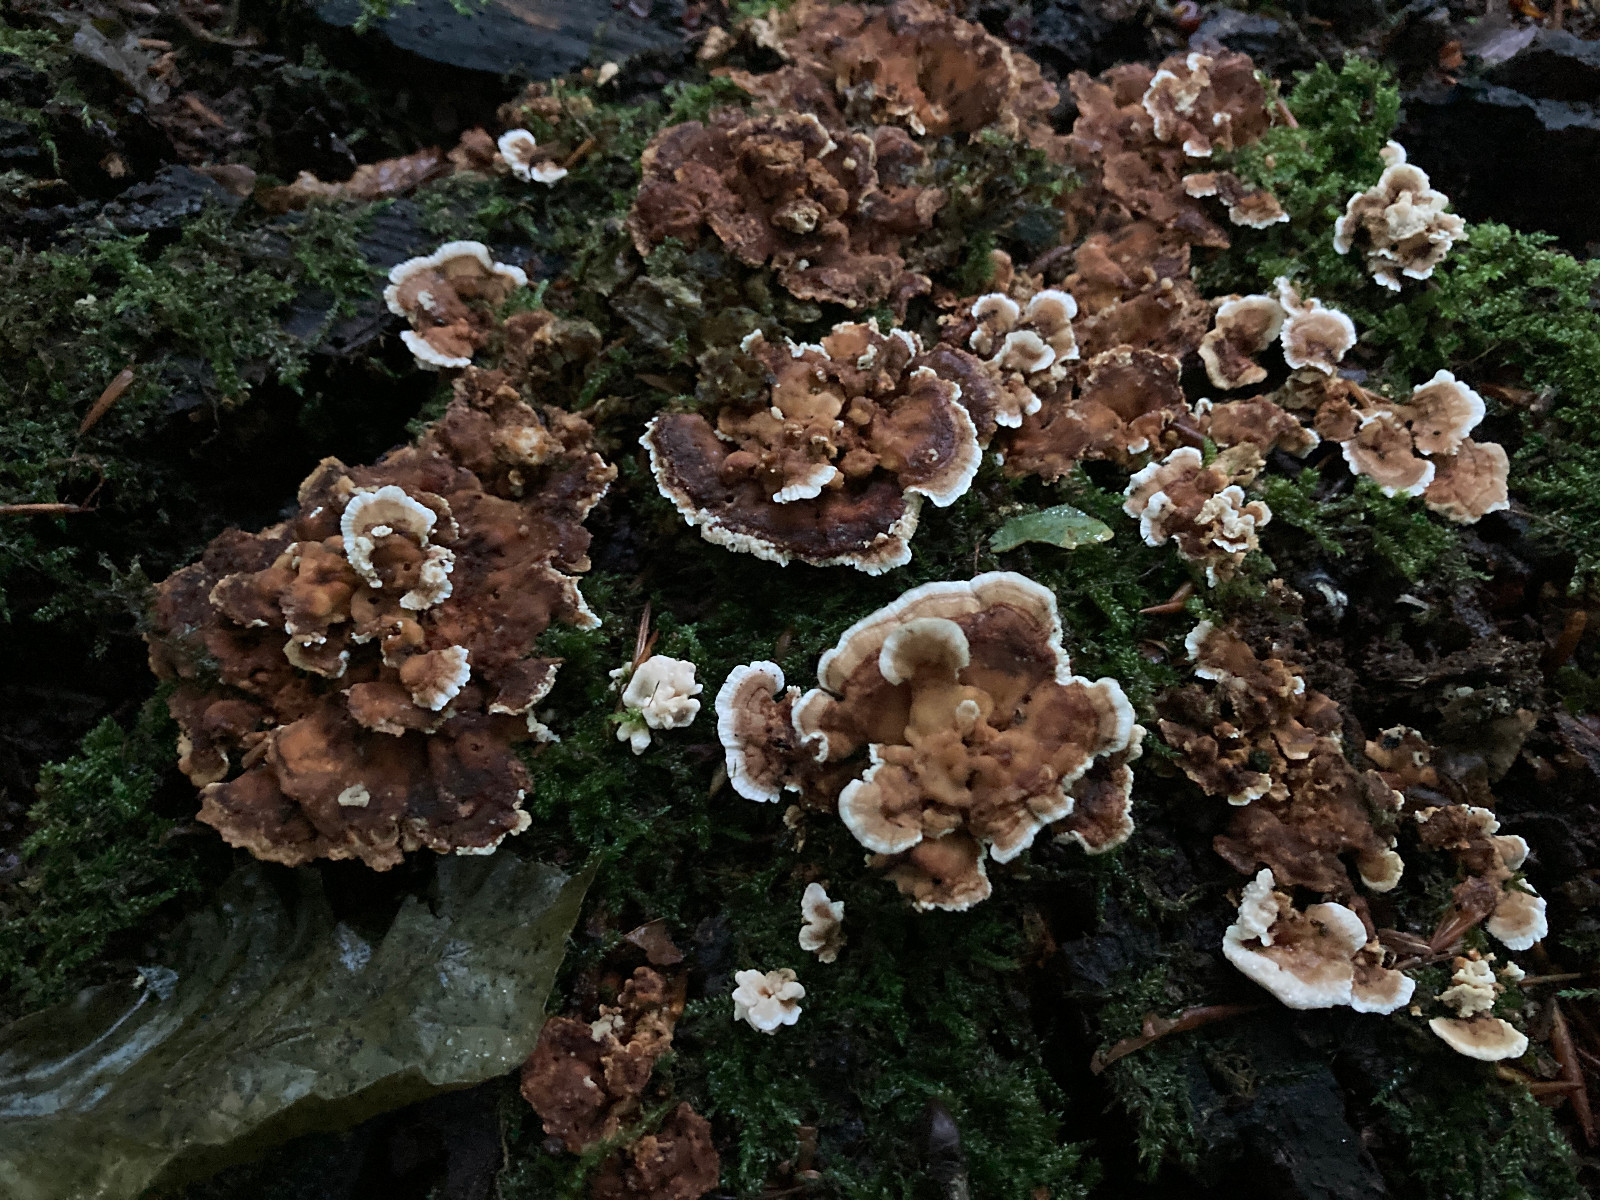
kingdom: Fungi
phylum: Basidiomycota
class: Agaricomycetes
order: Polyporales
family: Polyporaceae
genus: Trametes
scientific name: Trametes
